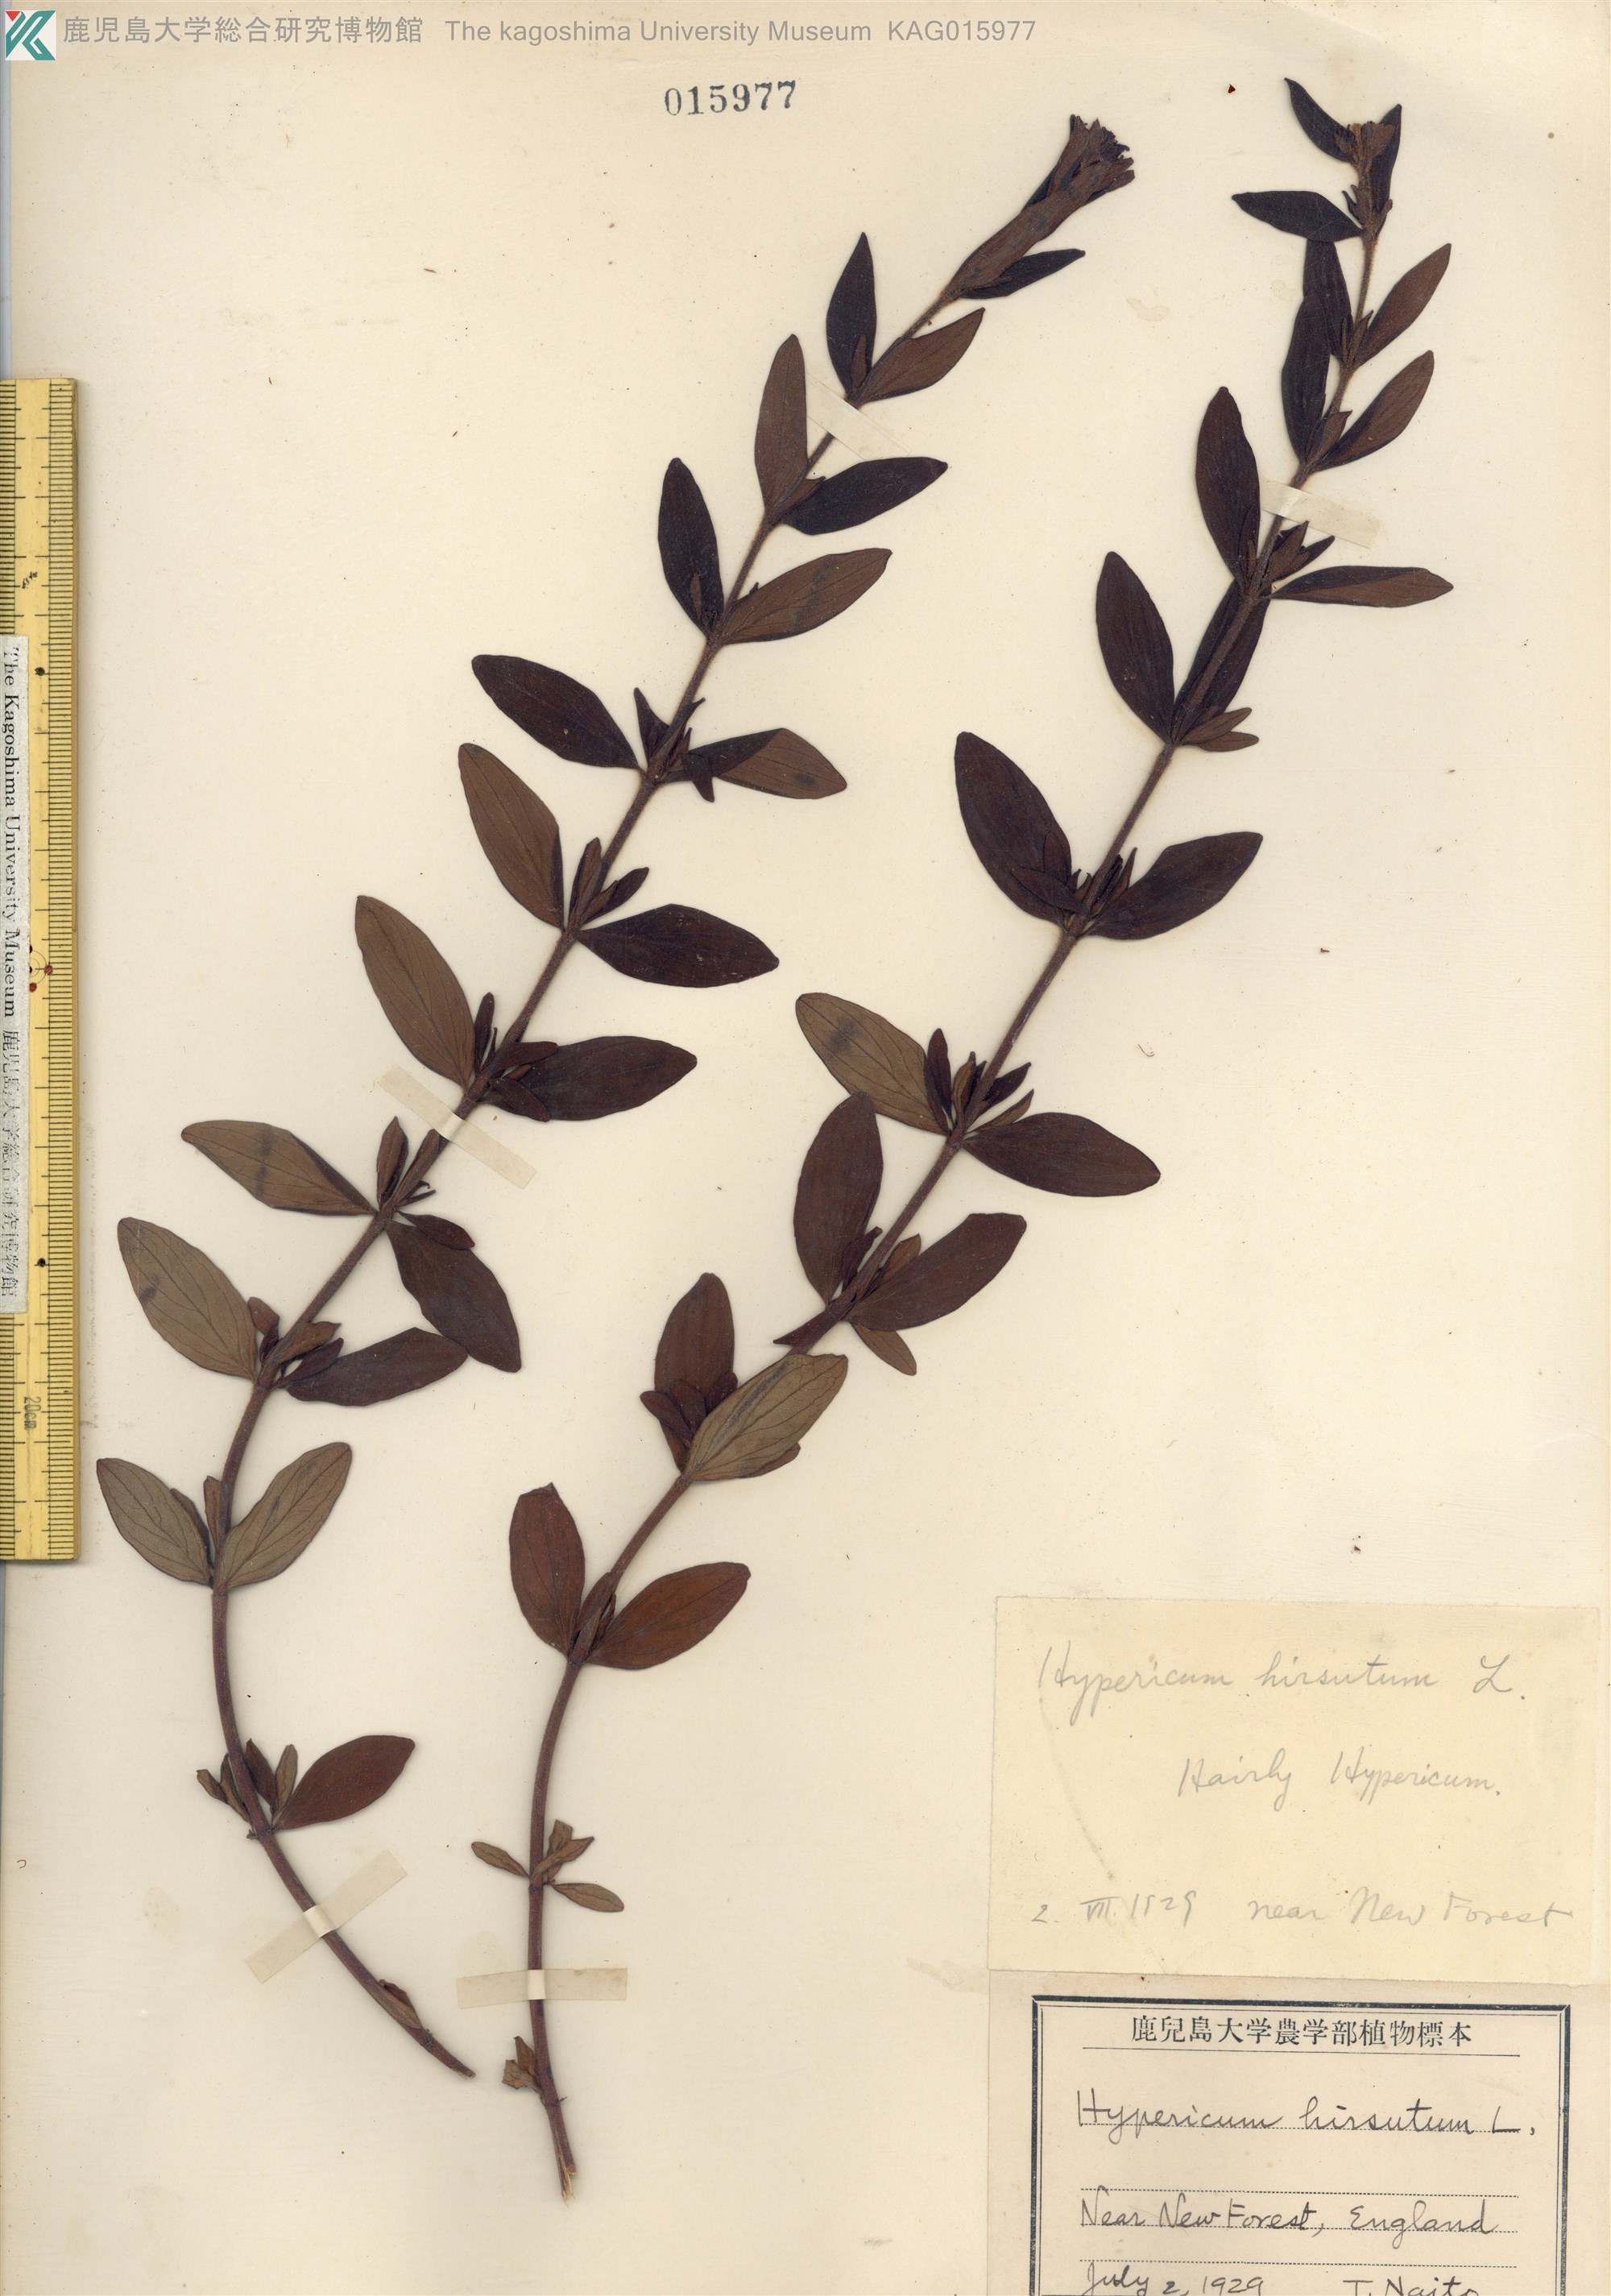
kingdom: Plantae
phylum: Tracheophyta
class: Magnoliopsida
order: Malpighiales
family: Hypericaceae
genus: Hypericum
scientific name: Hypericum hirsutum
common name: Hairy st. john's-wort
